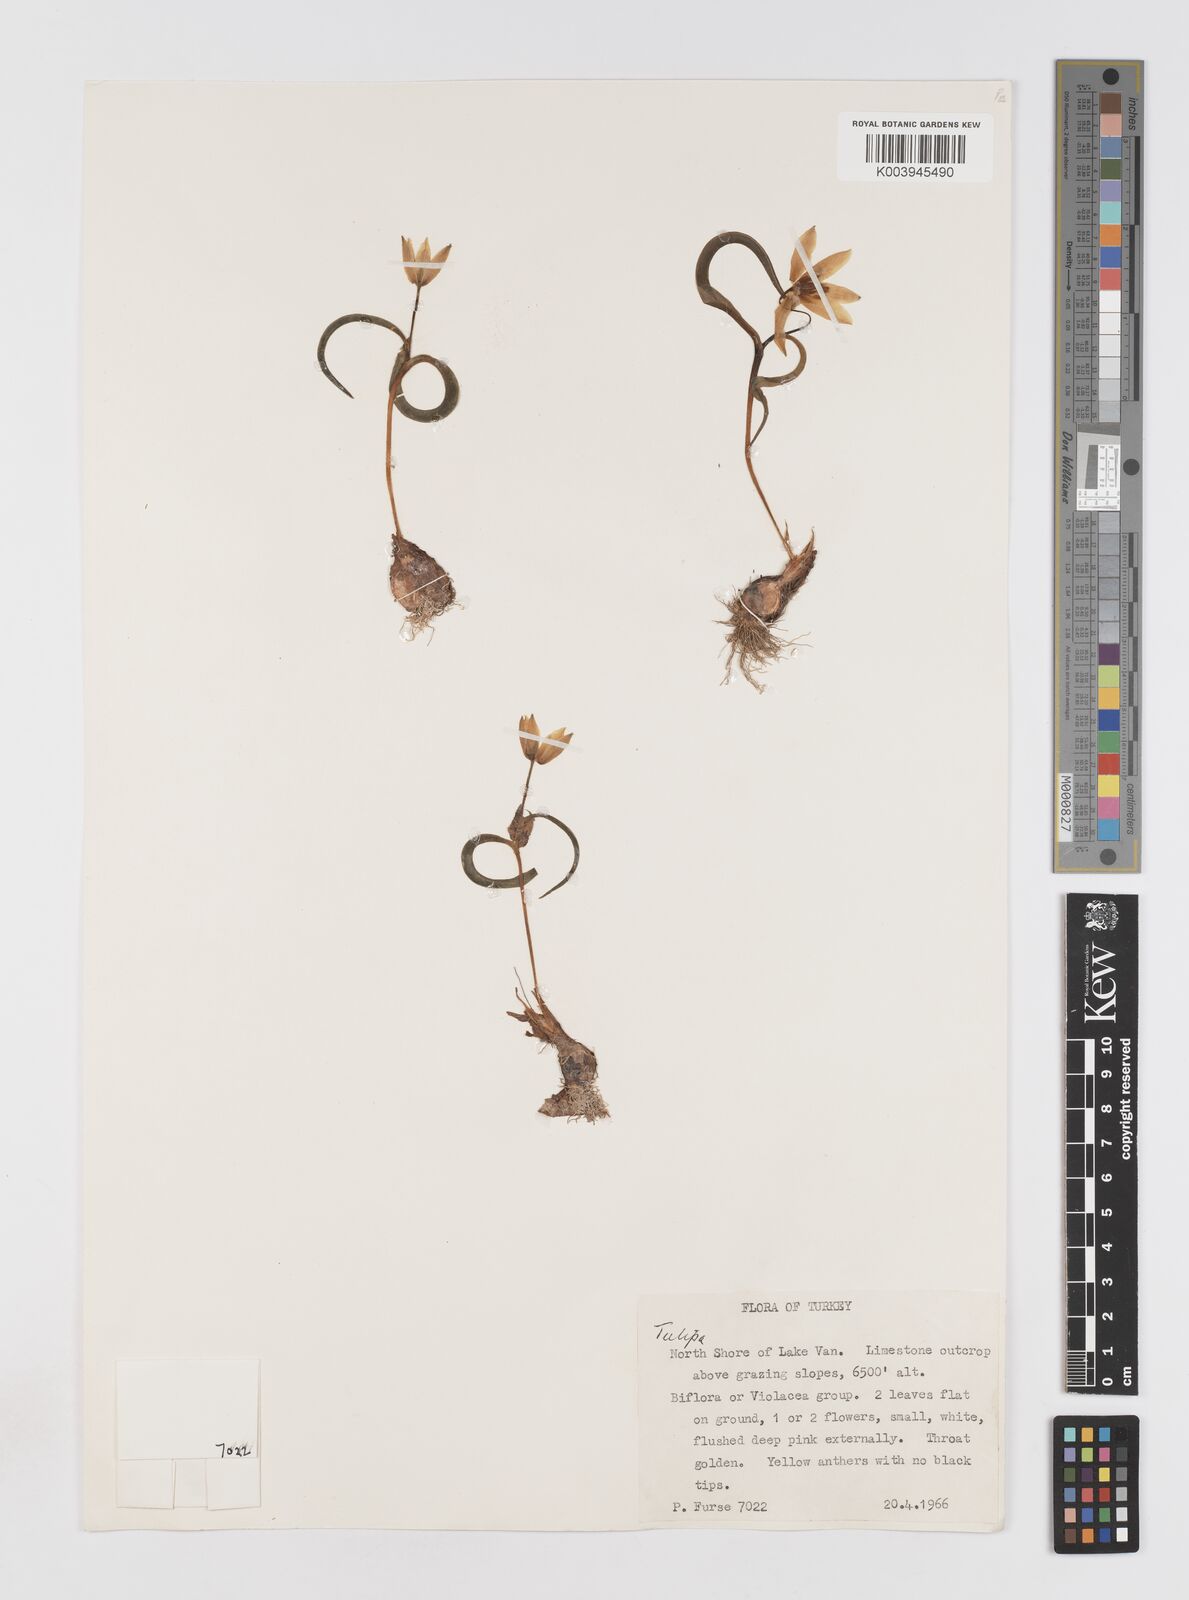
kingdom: Plantae
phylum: Tracheophyta
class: Liliopsida
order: Liliales
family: Liliaceae
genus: Tulipa
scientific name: Tulipa biflora
